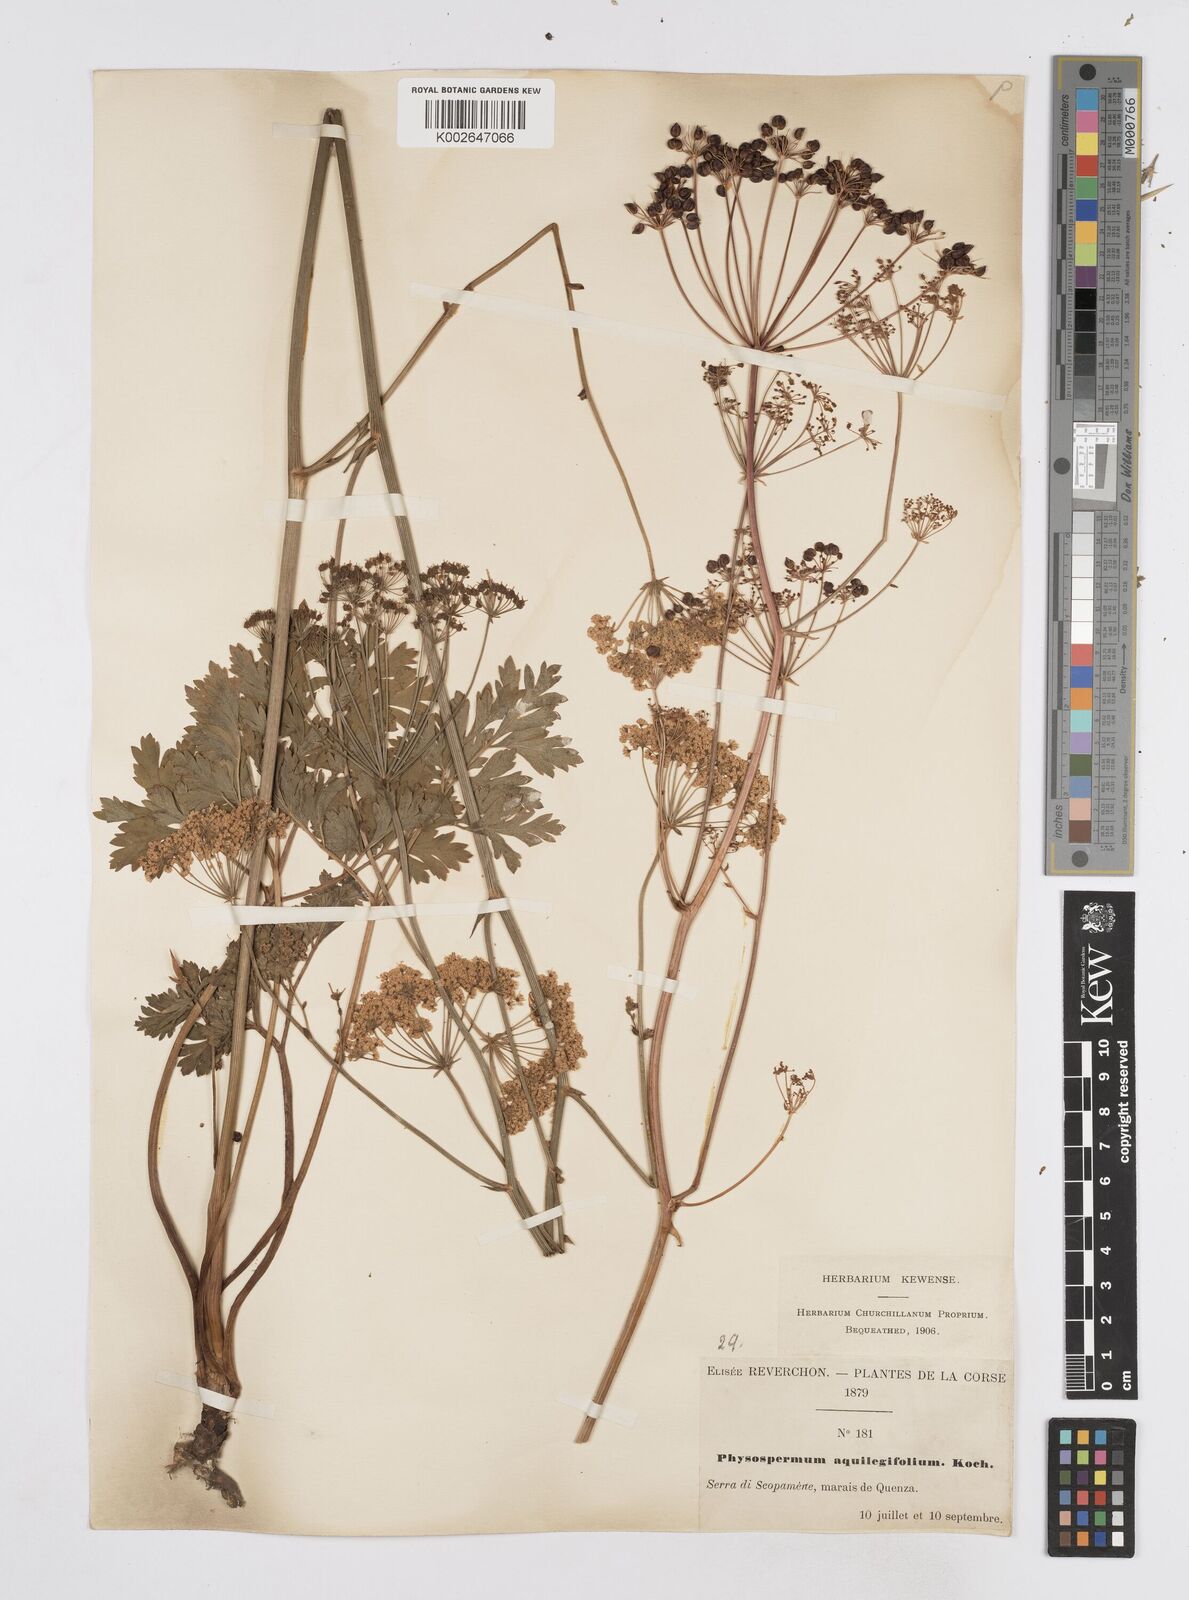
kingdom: Plantae
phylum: Tracheophyta
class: Magnoliopsida
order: Apiales
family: Apiaceae
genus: Physospermum
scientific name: Physospermum cornubiense
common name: Bladderseed
